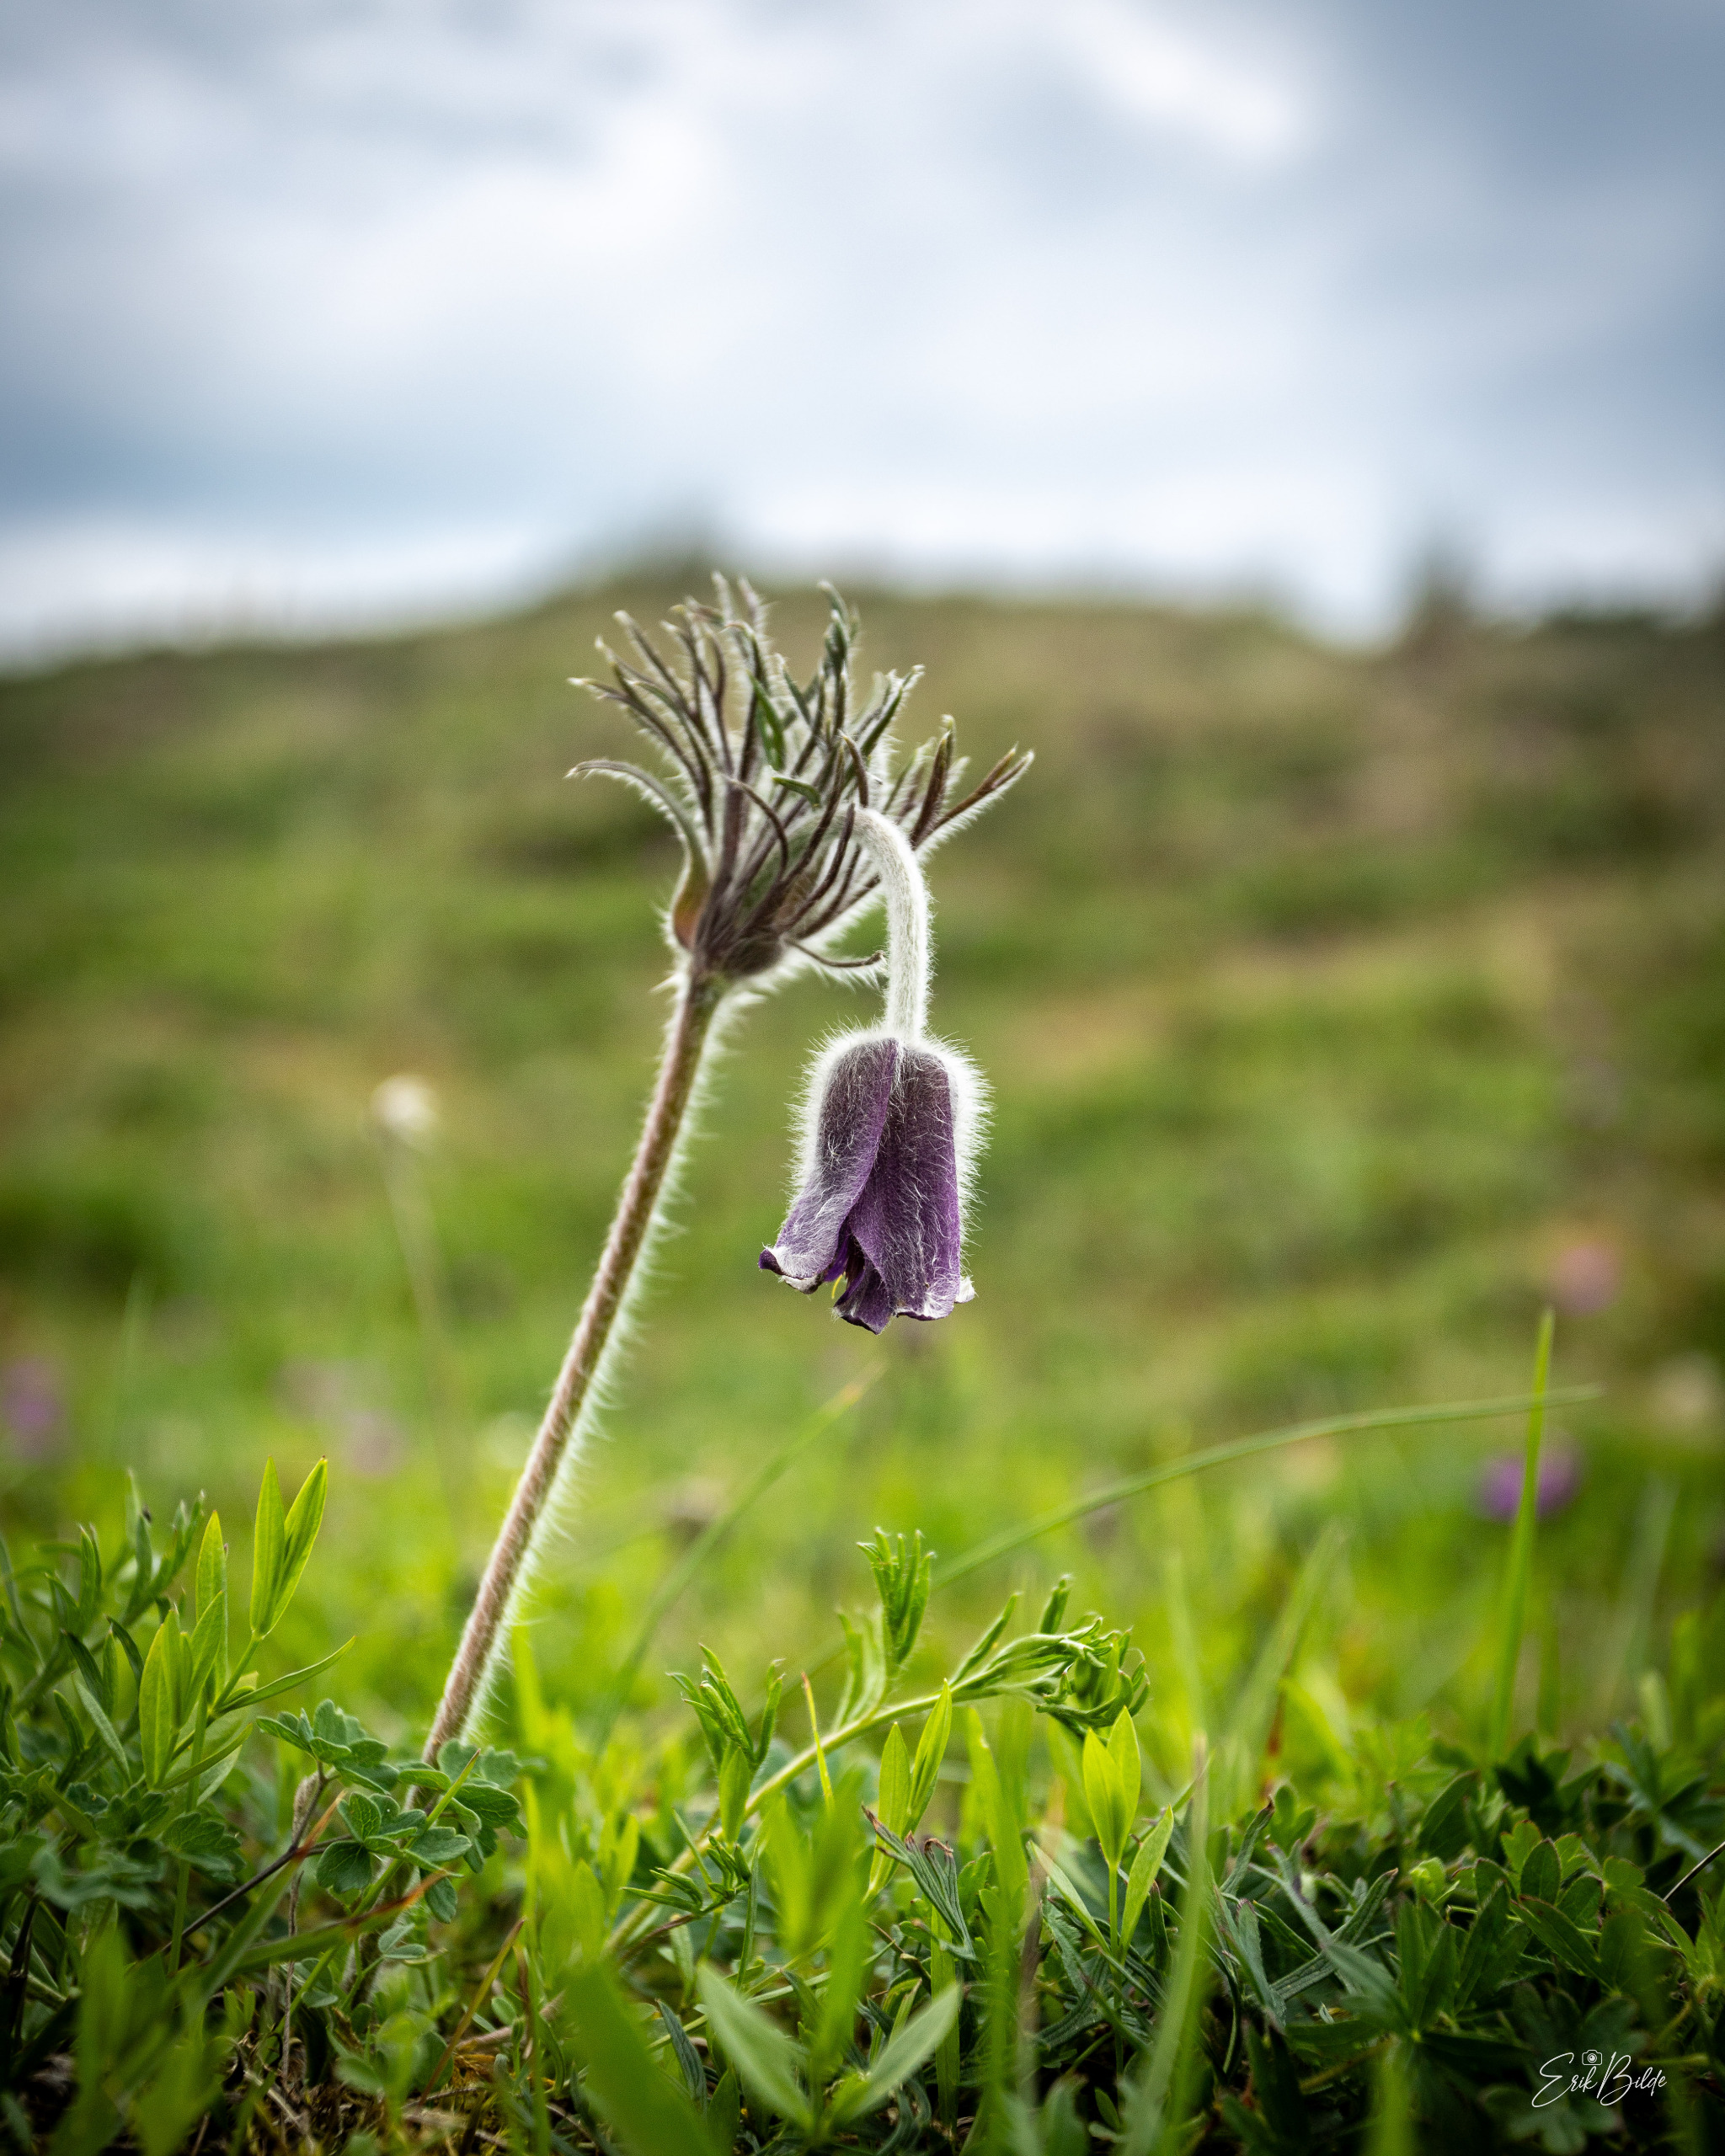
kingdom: Plantae
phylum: Tracheophyta
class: Magnoliopsida
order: Ranunculales
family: Ranunculaceae
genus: Pulsatilla
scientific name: Pulsatilla pratensis
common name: Nikkende kobjælde
